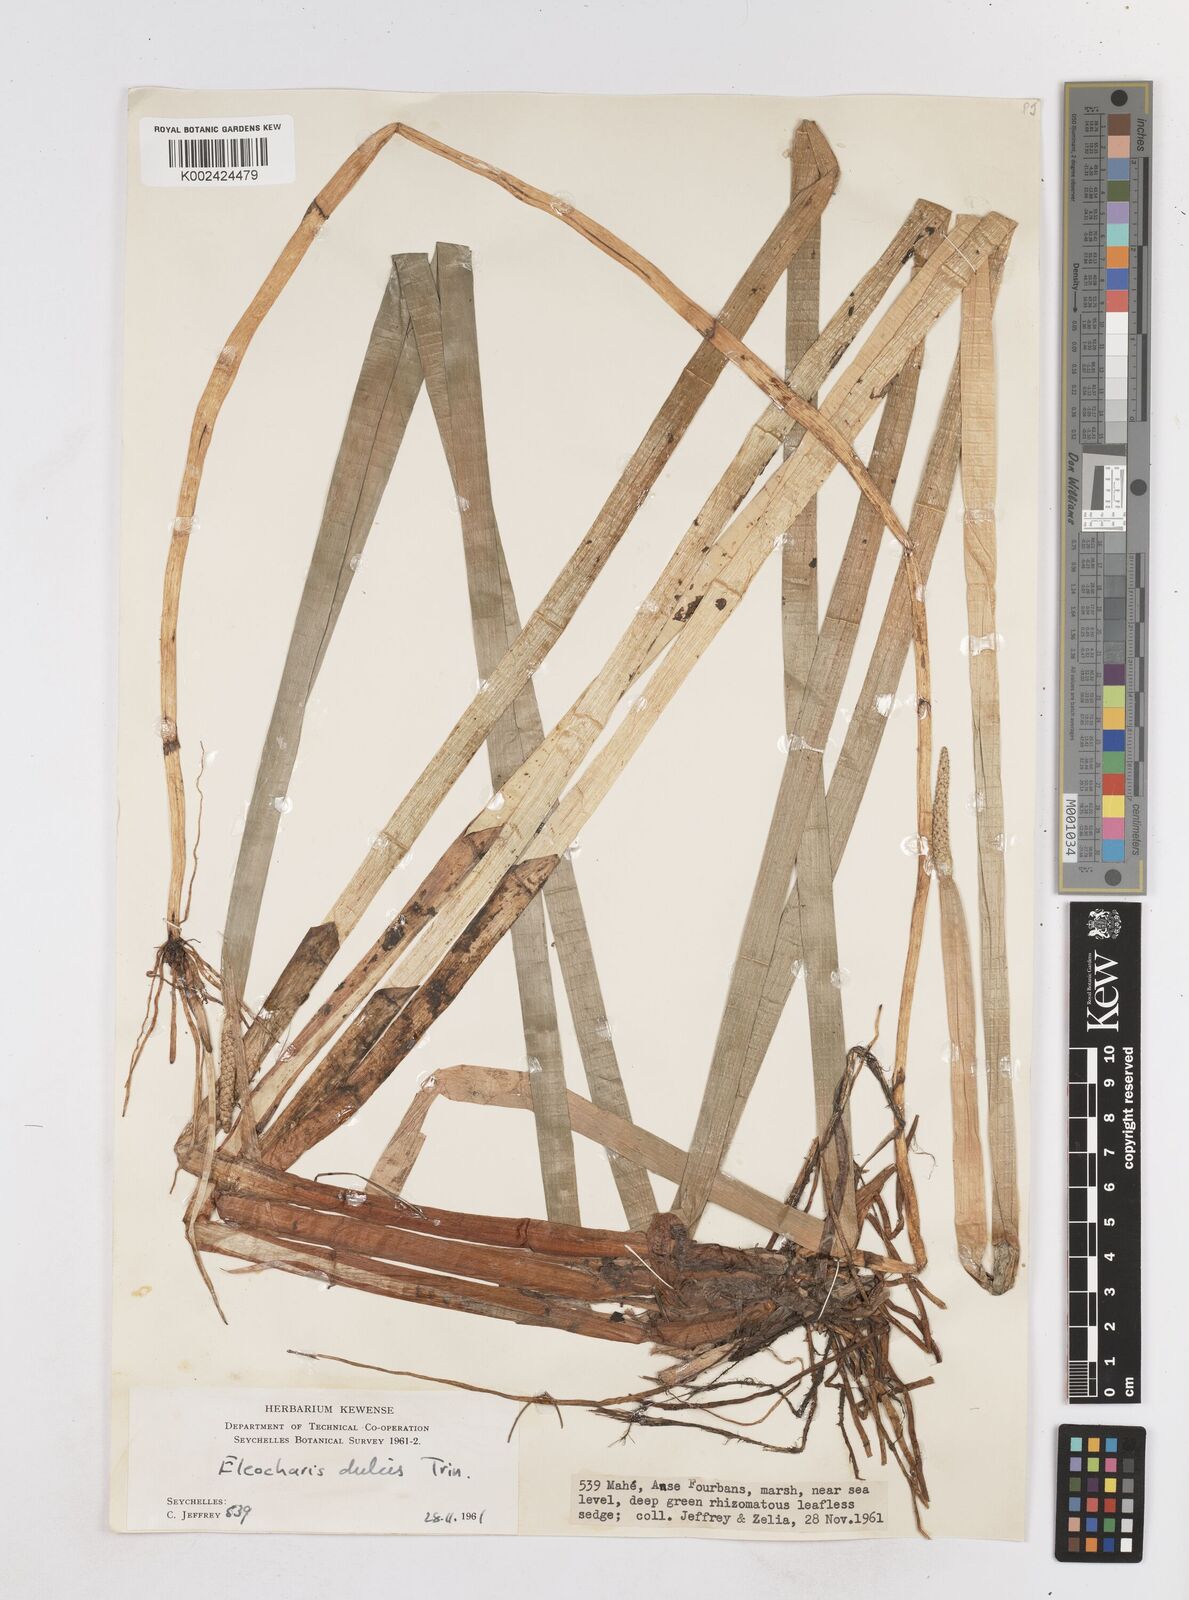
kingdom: Plantae
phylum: Tracheophyta
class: Liliopsida
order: Poales
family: Cyperaceae
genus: Eleocharis
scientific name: Eleocharis dulcis
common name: Chinese water chestnut
